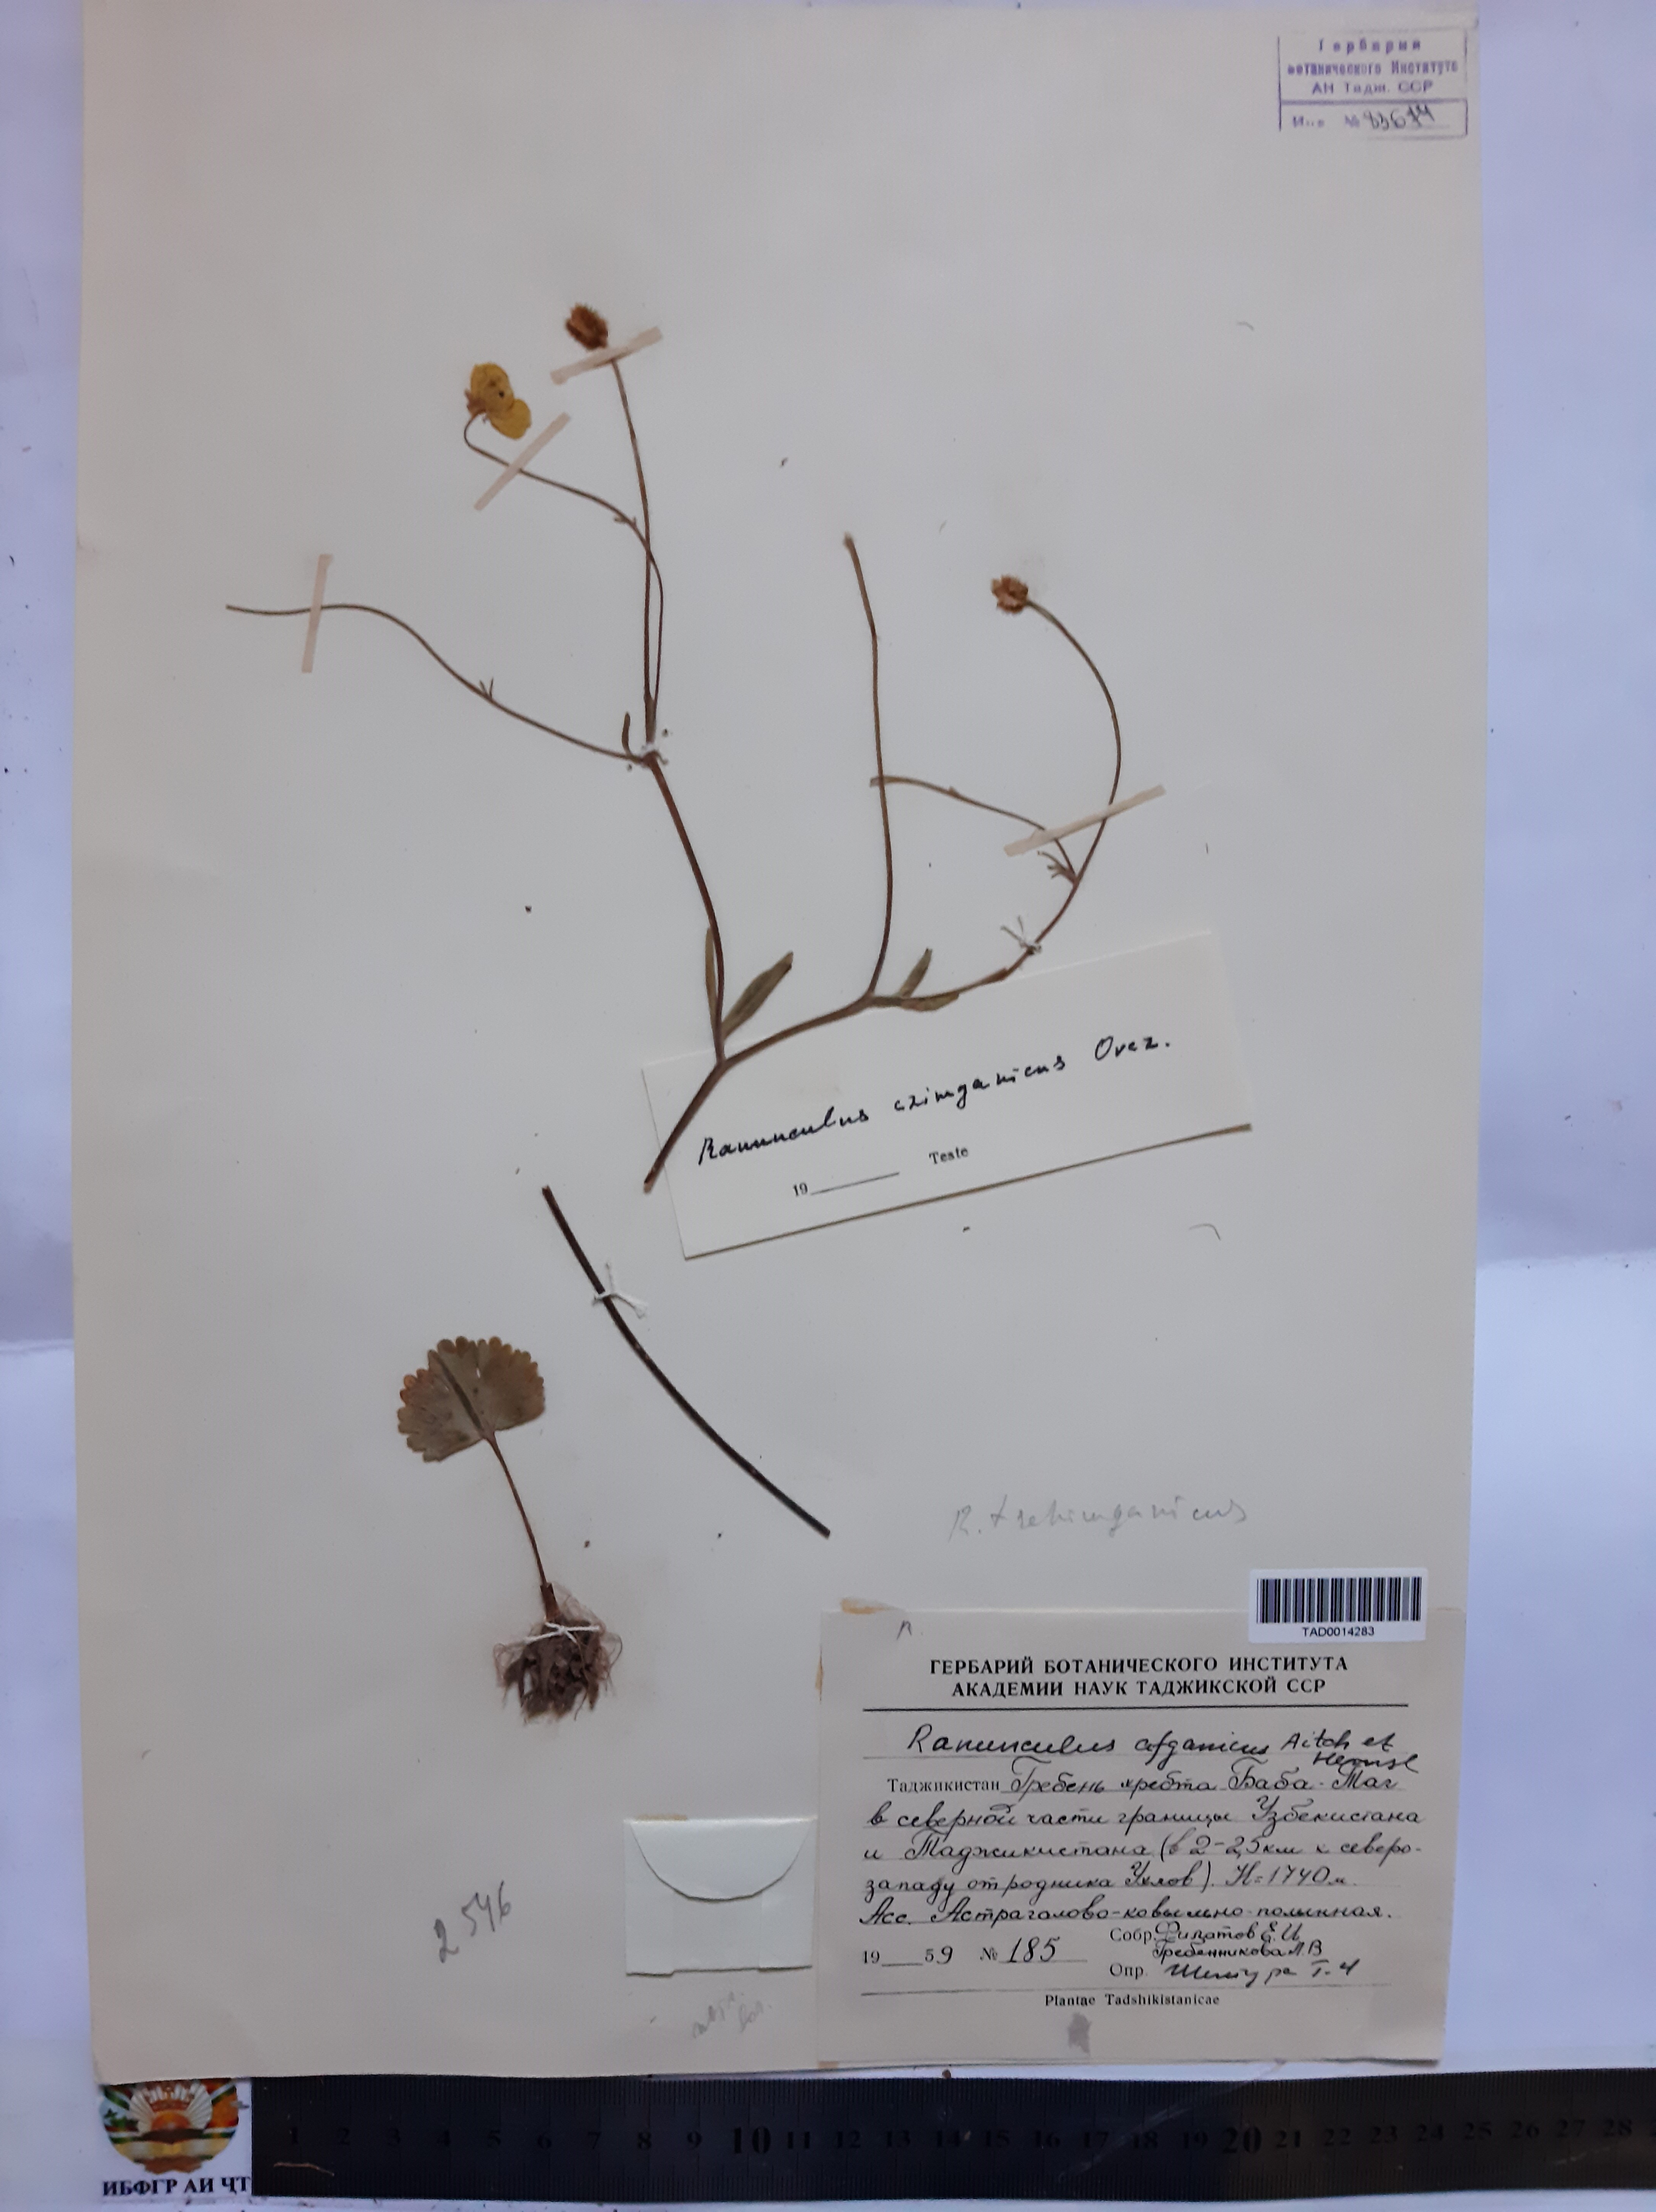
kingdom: Plantae
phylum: Tracheophyta
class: Magnoliopsida
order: Ranunculales
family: Ranunculaceae
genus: Ranunculus
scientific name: Ranunculus afghanicus
